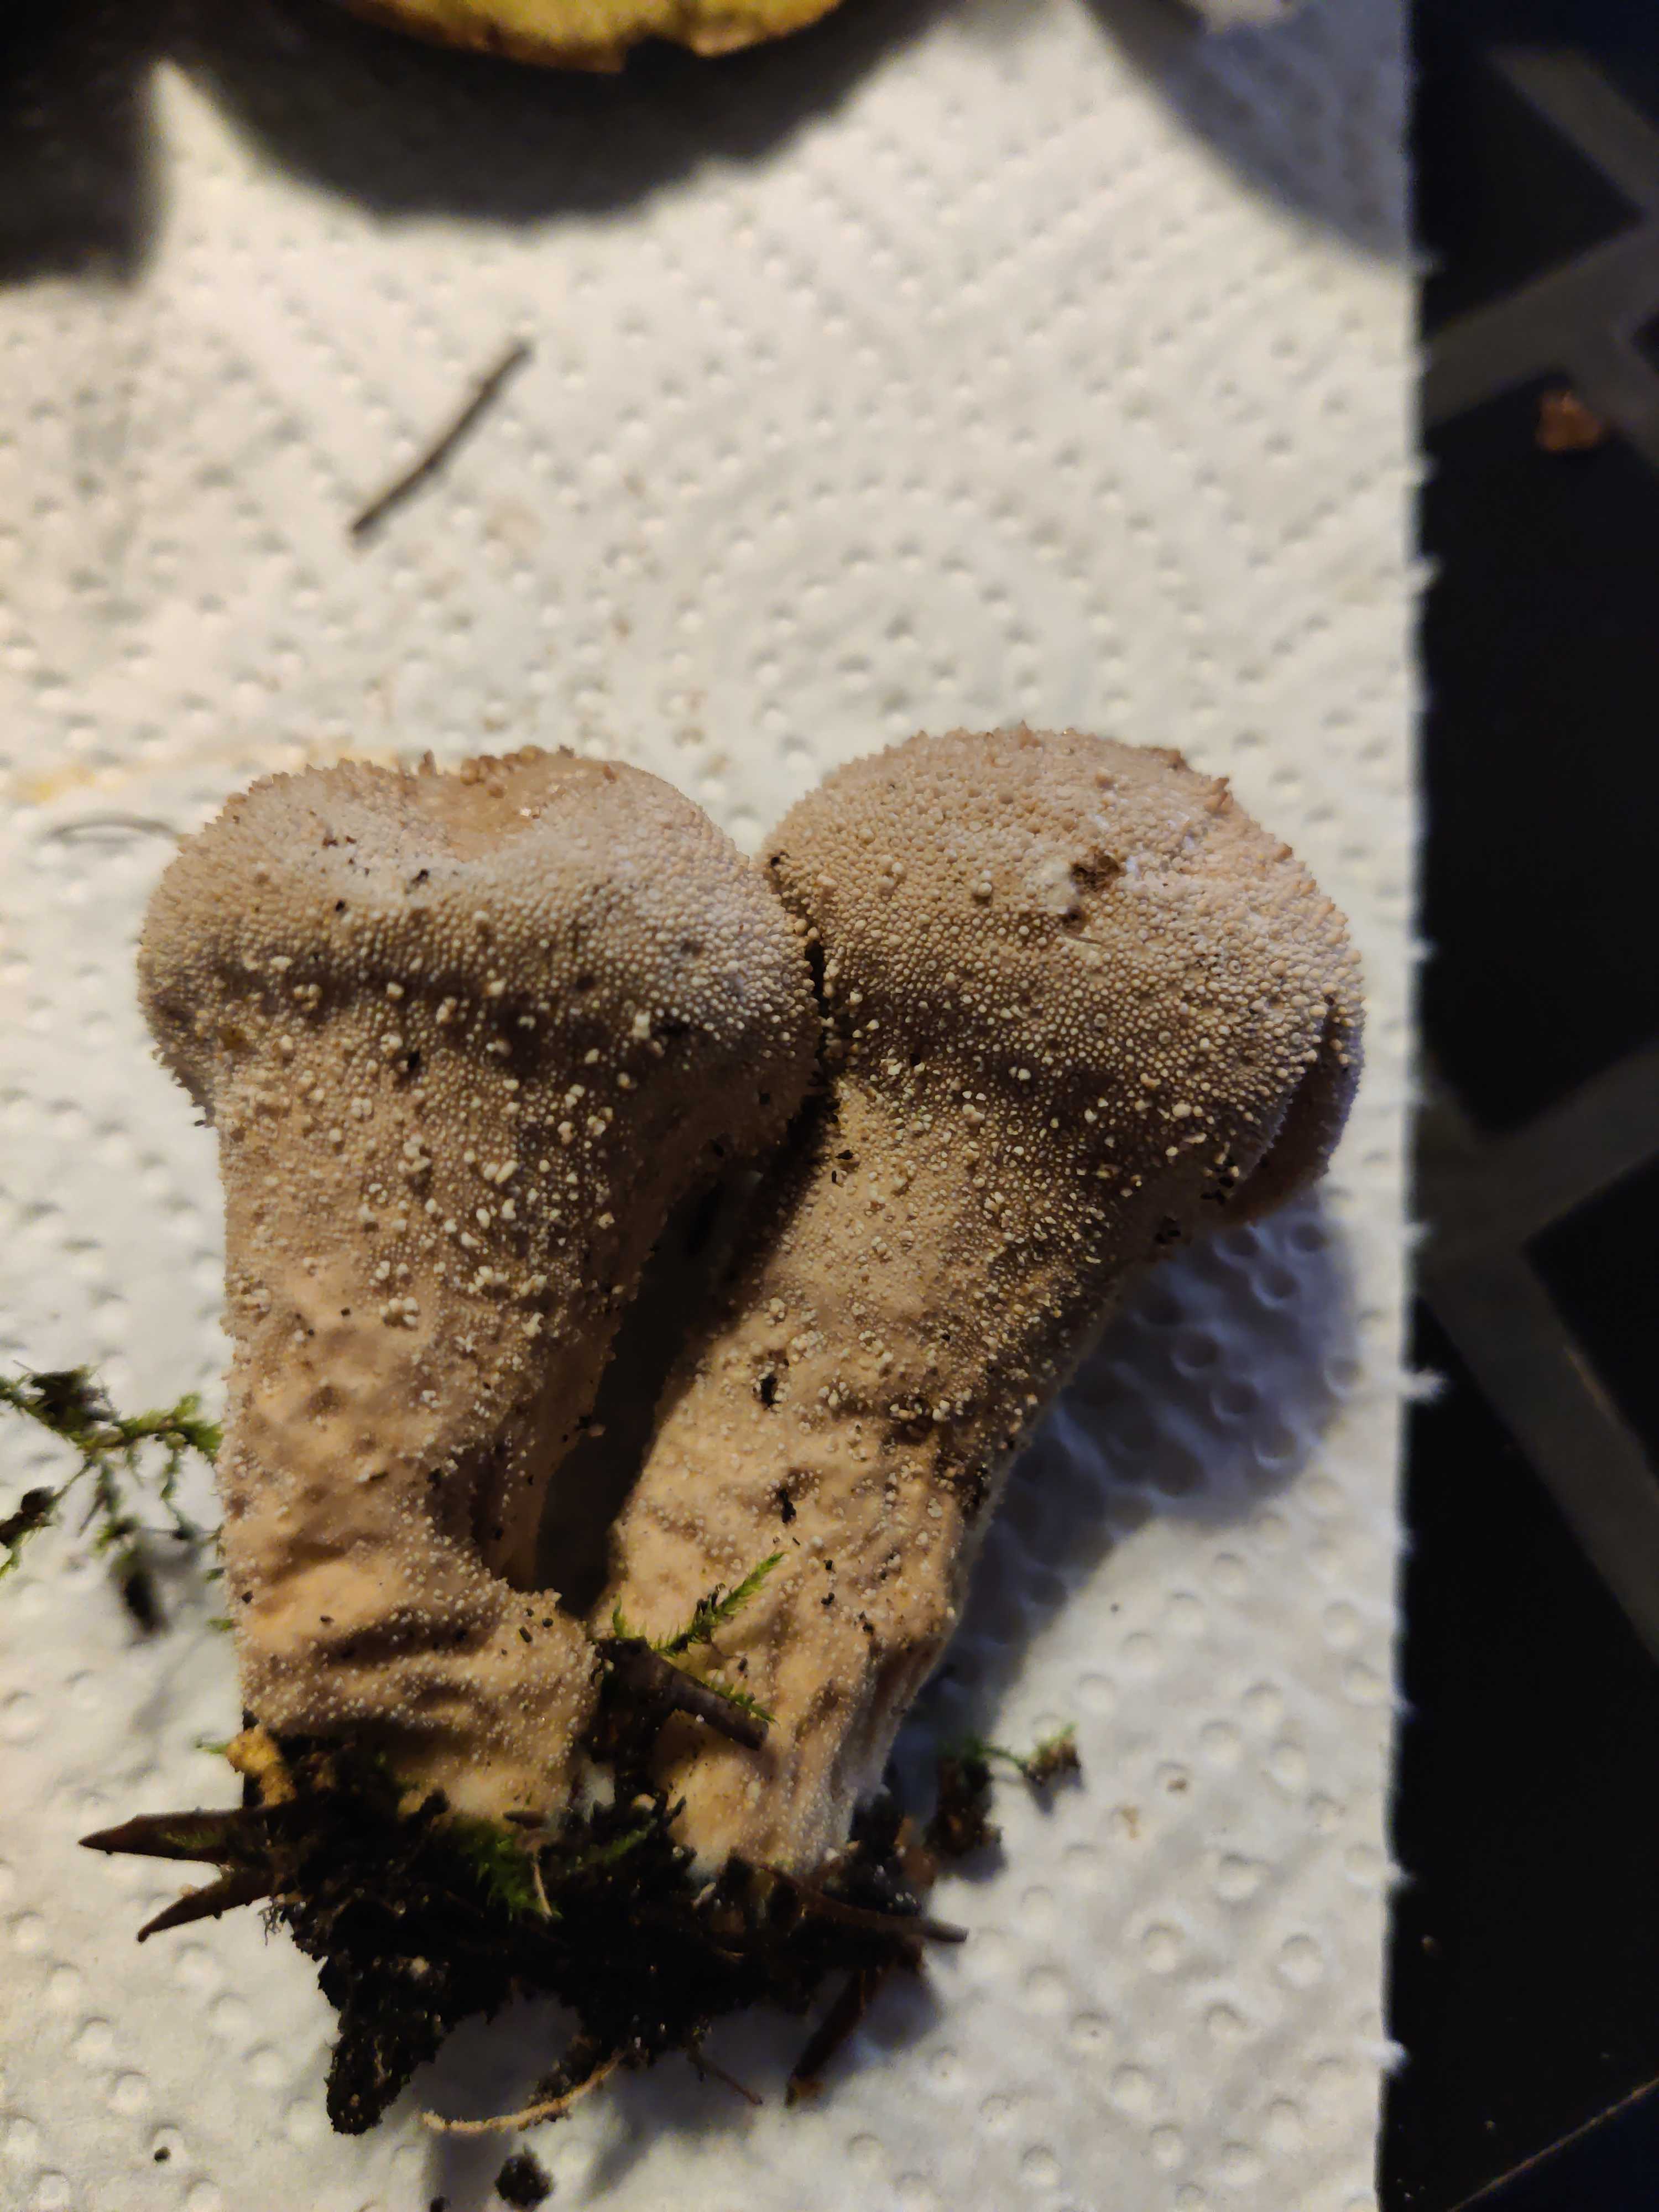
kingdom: Fungi
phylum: Basidiomycota
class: Agaricomycetes
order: Agaricales
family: Lycoperdaceae
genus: Lycoperdon
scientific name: Lycoperdon perlatum
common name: krystal-støvbold
